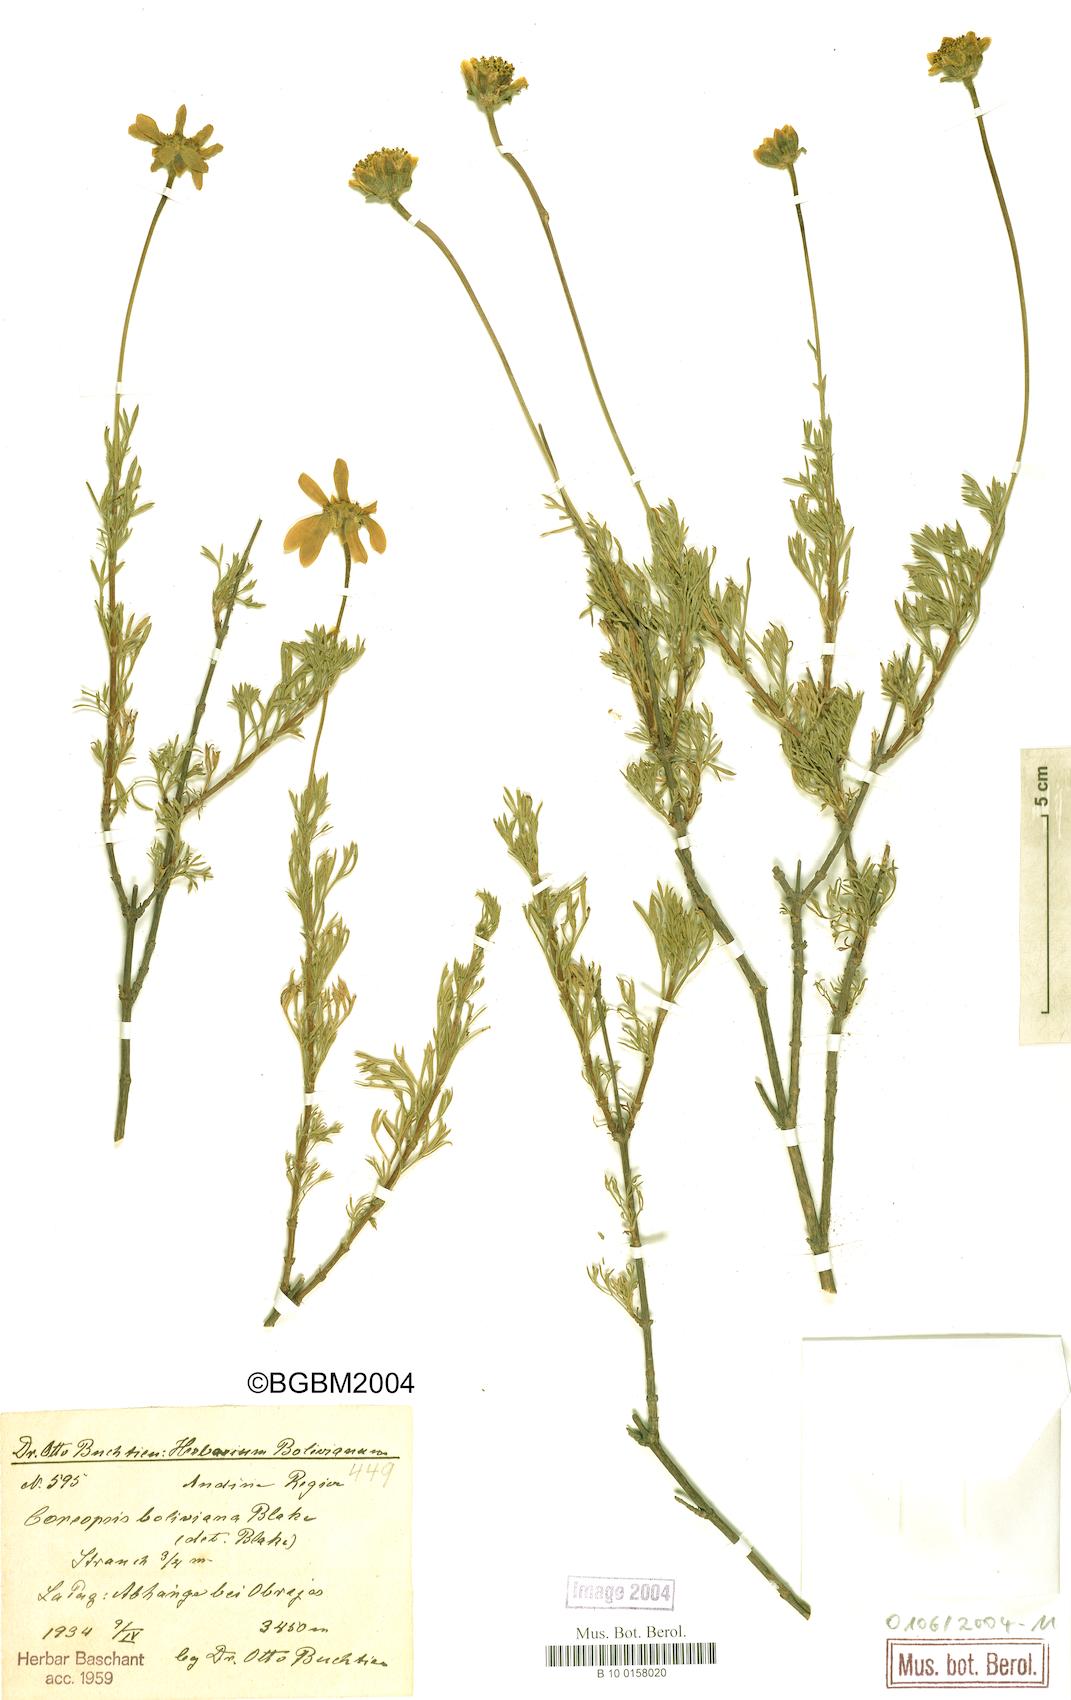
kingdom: Plantae
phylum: Tracheophyta
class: Magnoliopsida
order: Asterales
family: Asteraceae
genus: Coreopsis
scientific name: Coreopsis pickeringii
